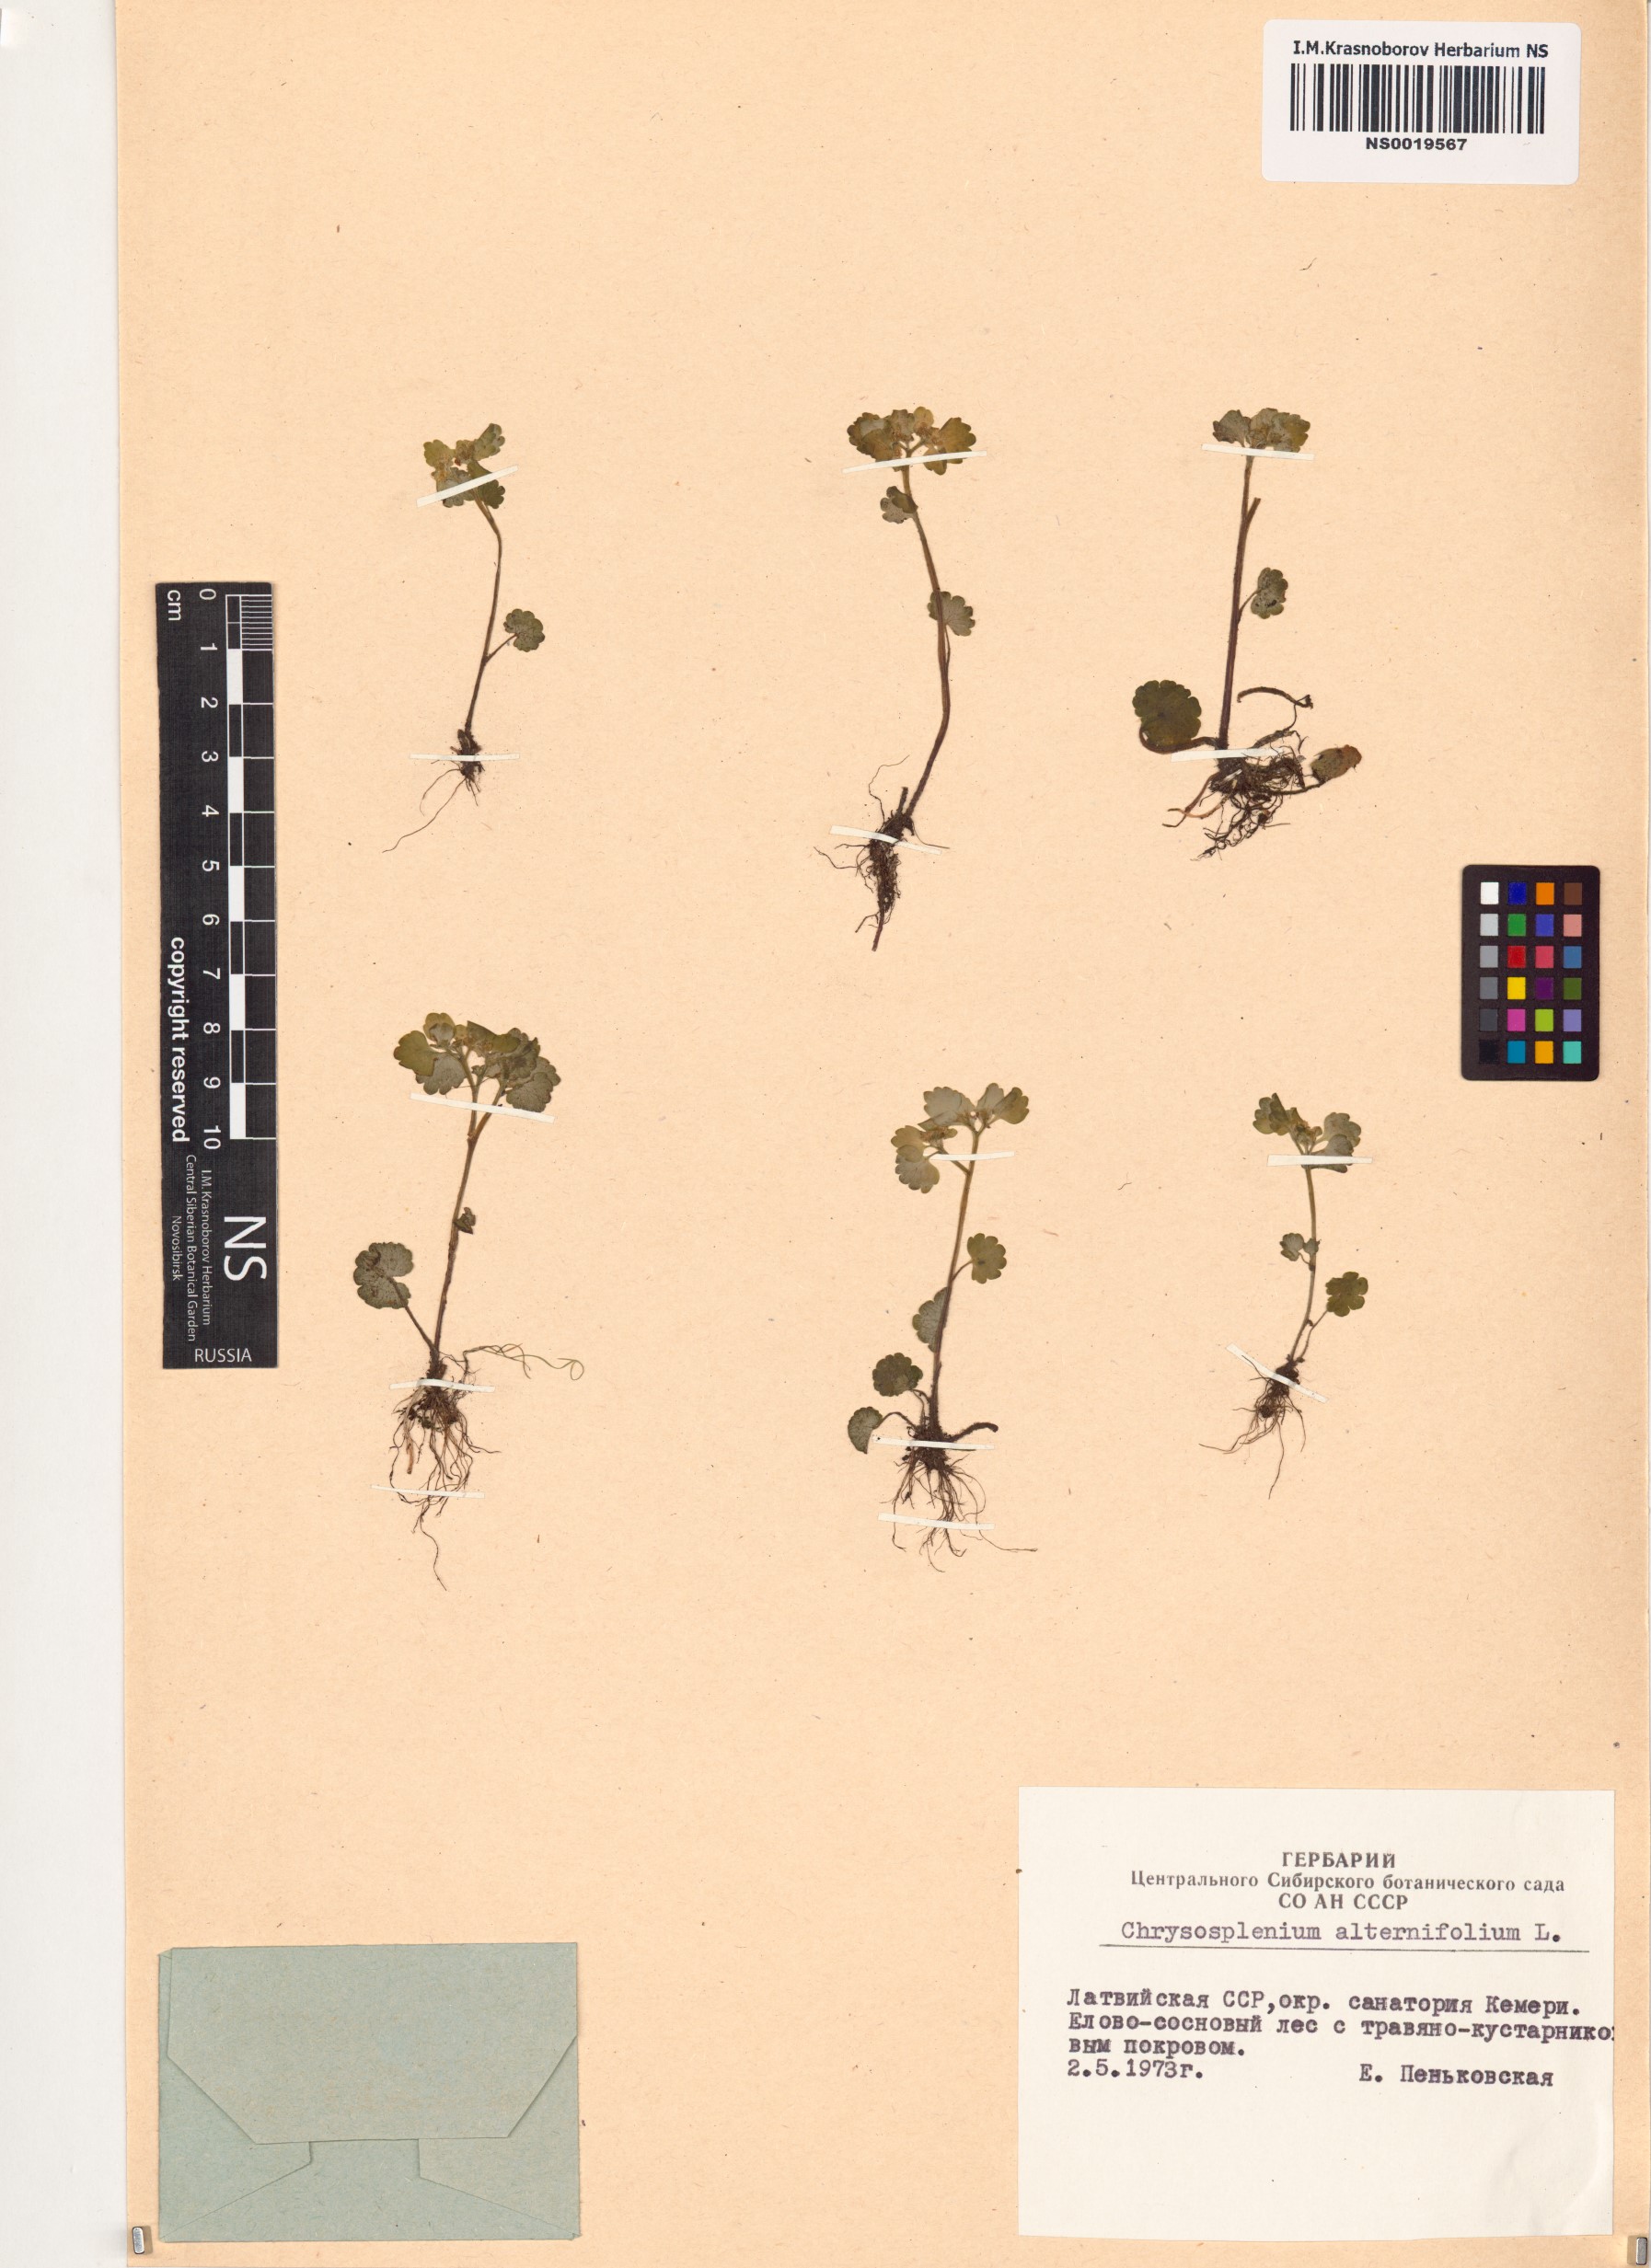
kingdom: Plantae
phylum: Tracheophyta
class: Magnoliopsida
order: Saxifragales
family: Saxifragaceae
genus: Chrysosplenium
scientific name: Chrysosplenium alternifolium
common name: Alternate-leaved golden-saxifrage
